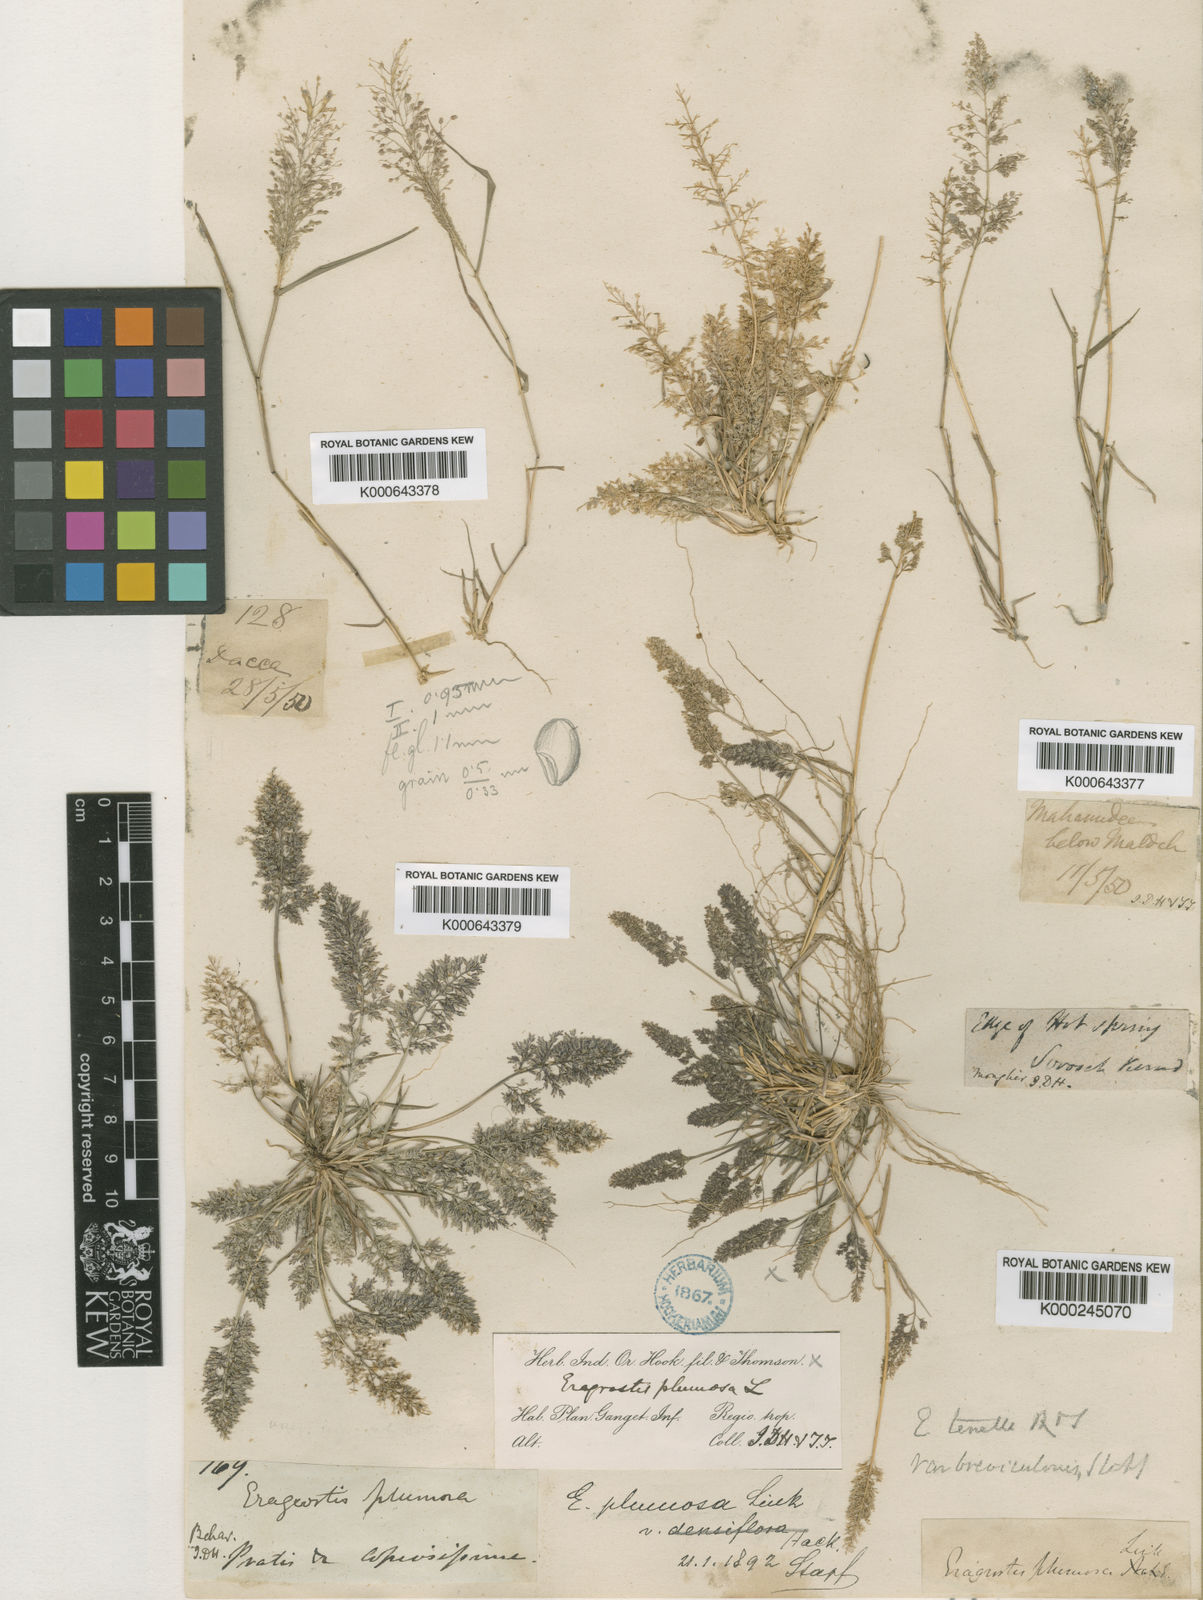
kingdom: Plantae
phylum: Tracheophyta
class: Liliopsida
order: Poales
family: Poaceae
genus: Eragrostis
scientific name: Eragrostis tenella
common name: Japanese lovegrass
